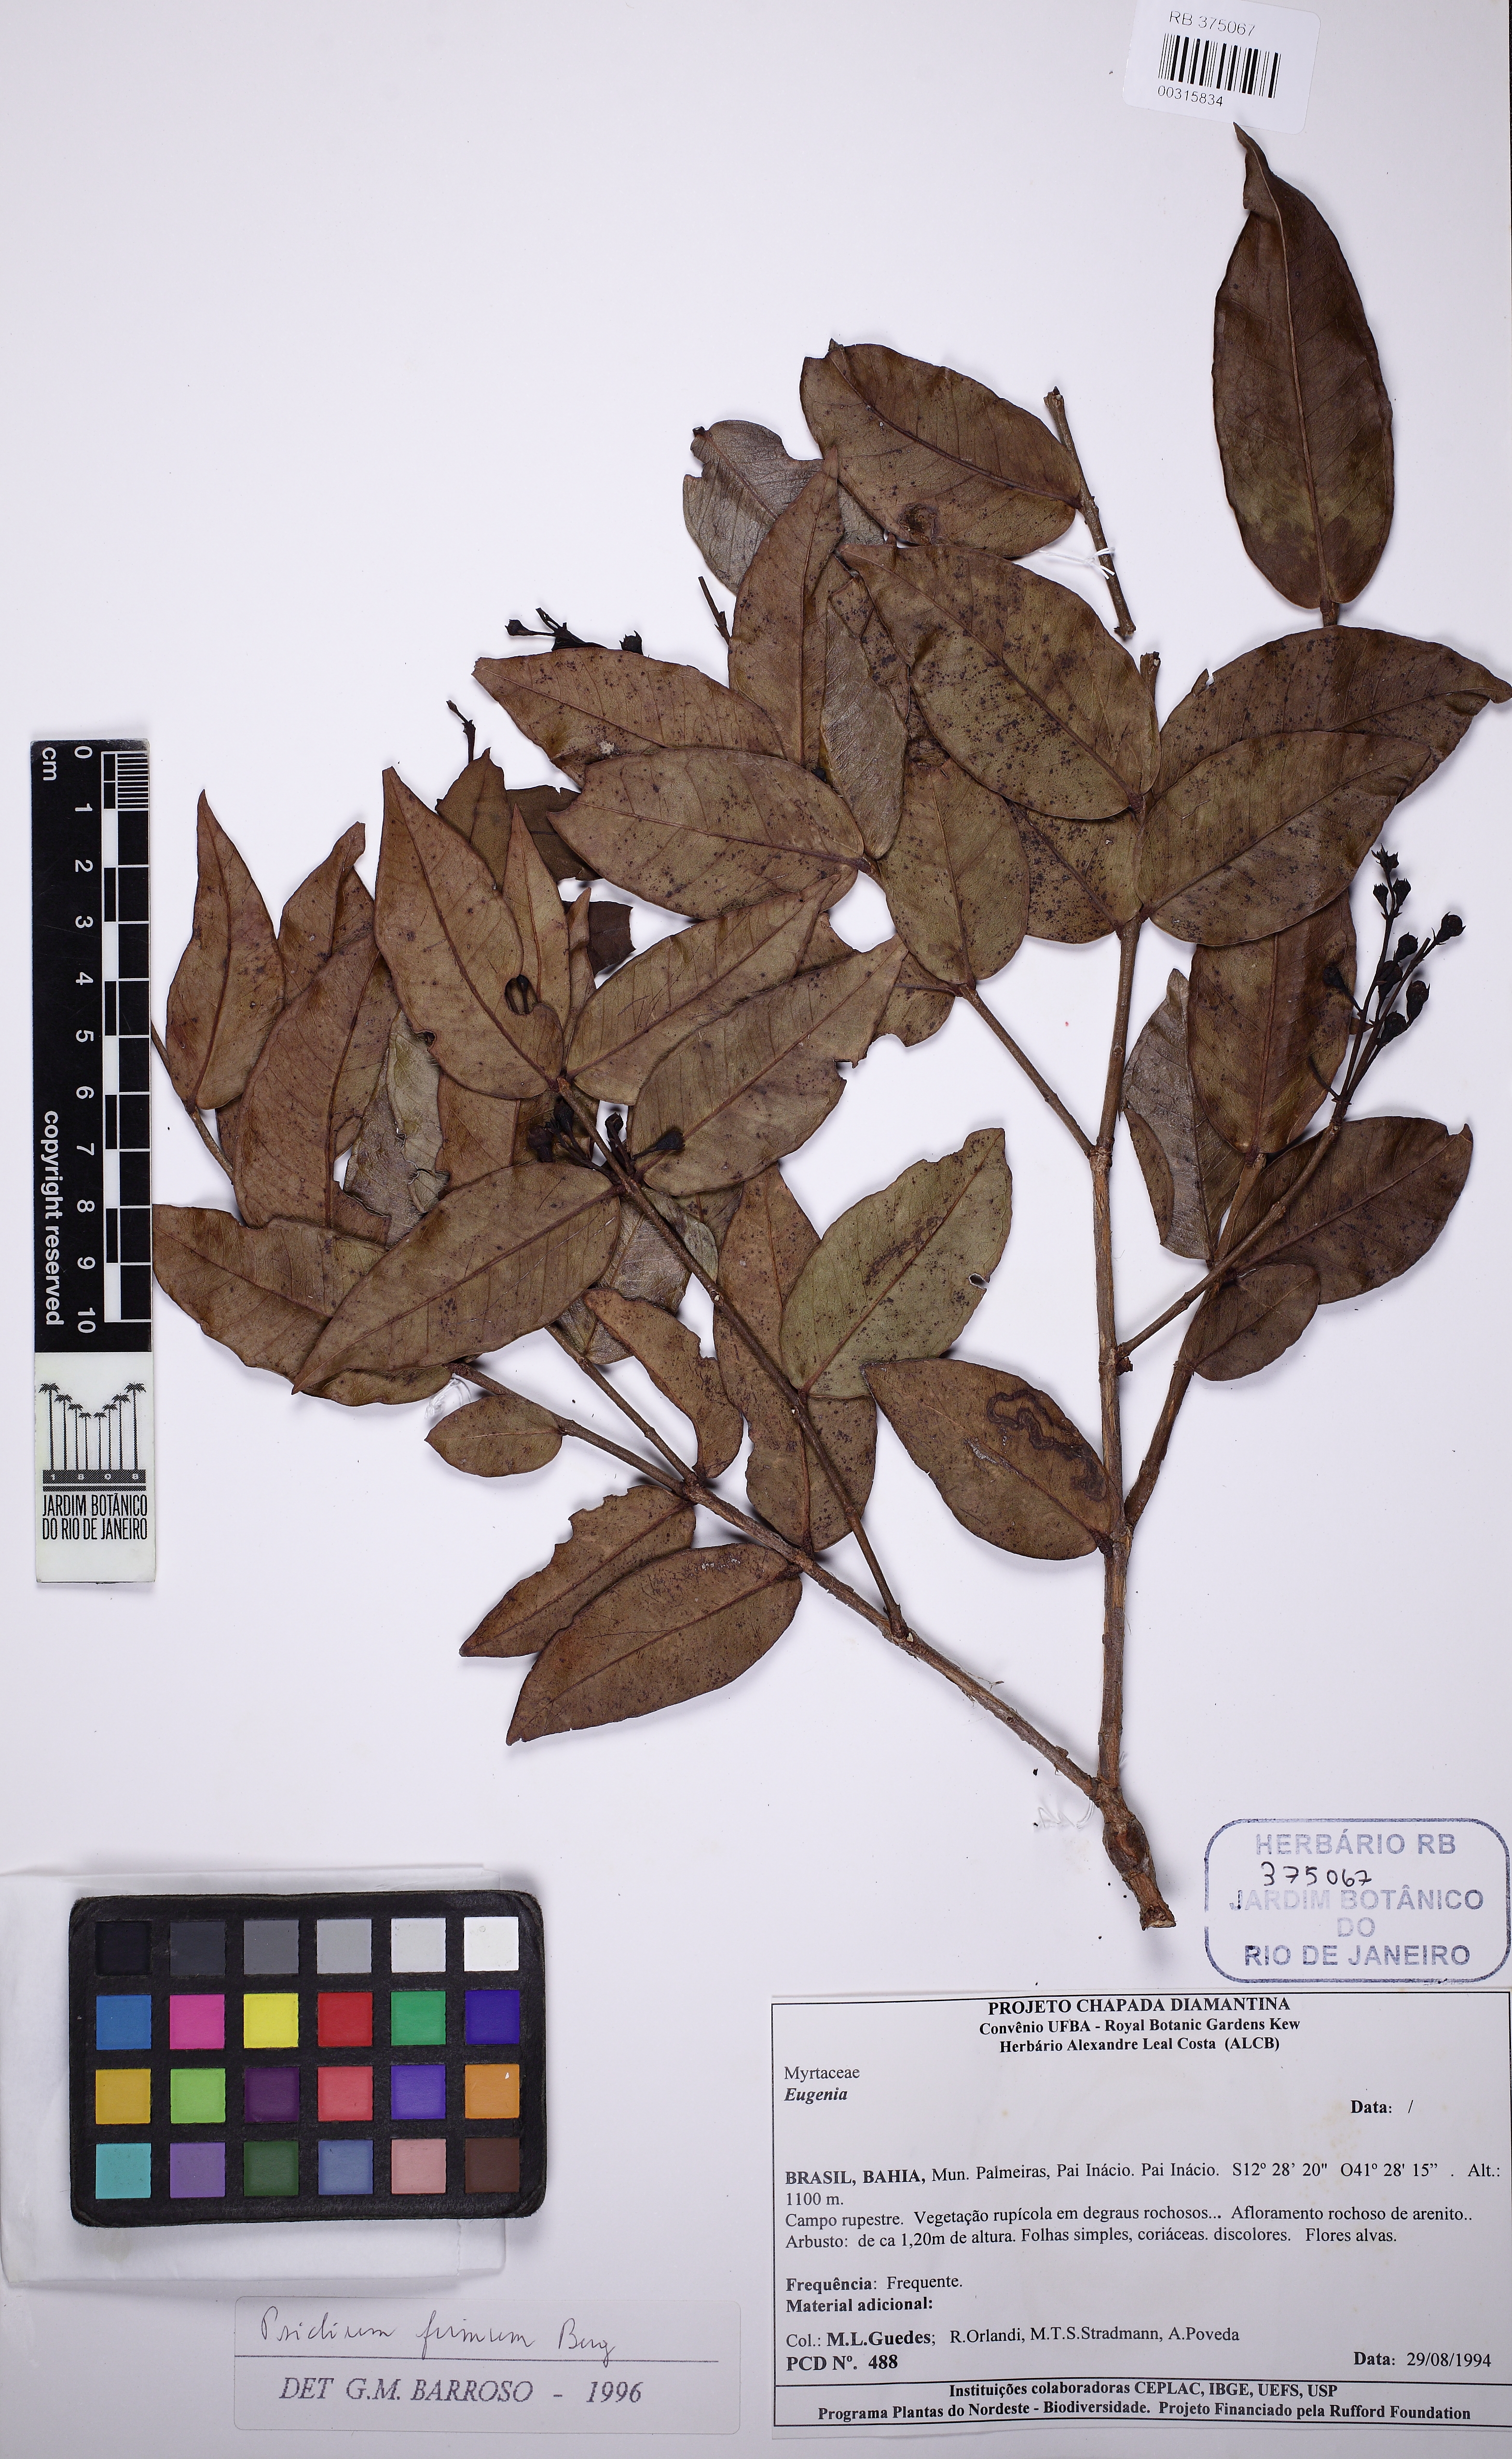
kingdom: Plantae
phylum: Tracheophyta
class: Magnoliopsida
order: Myrtales
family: Myrtaceae
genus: Psidium
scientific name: Psidium brownianum
